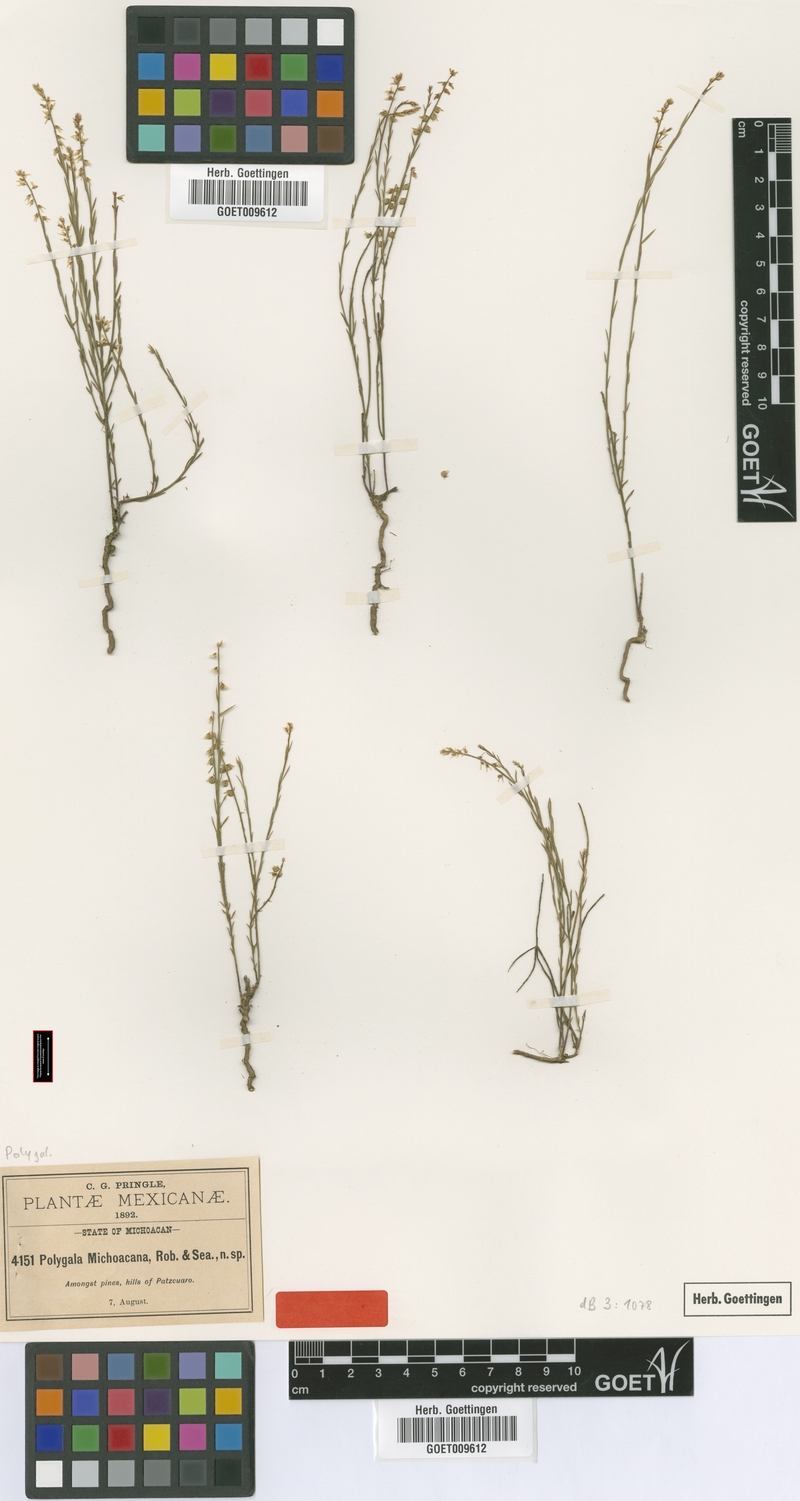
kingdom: Plantae
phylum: Tracheophyta
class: Magnoliopsida
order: Fabales
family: Polygalaceae
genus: Polygala
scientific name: Polygala mexicana
